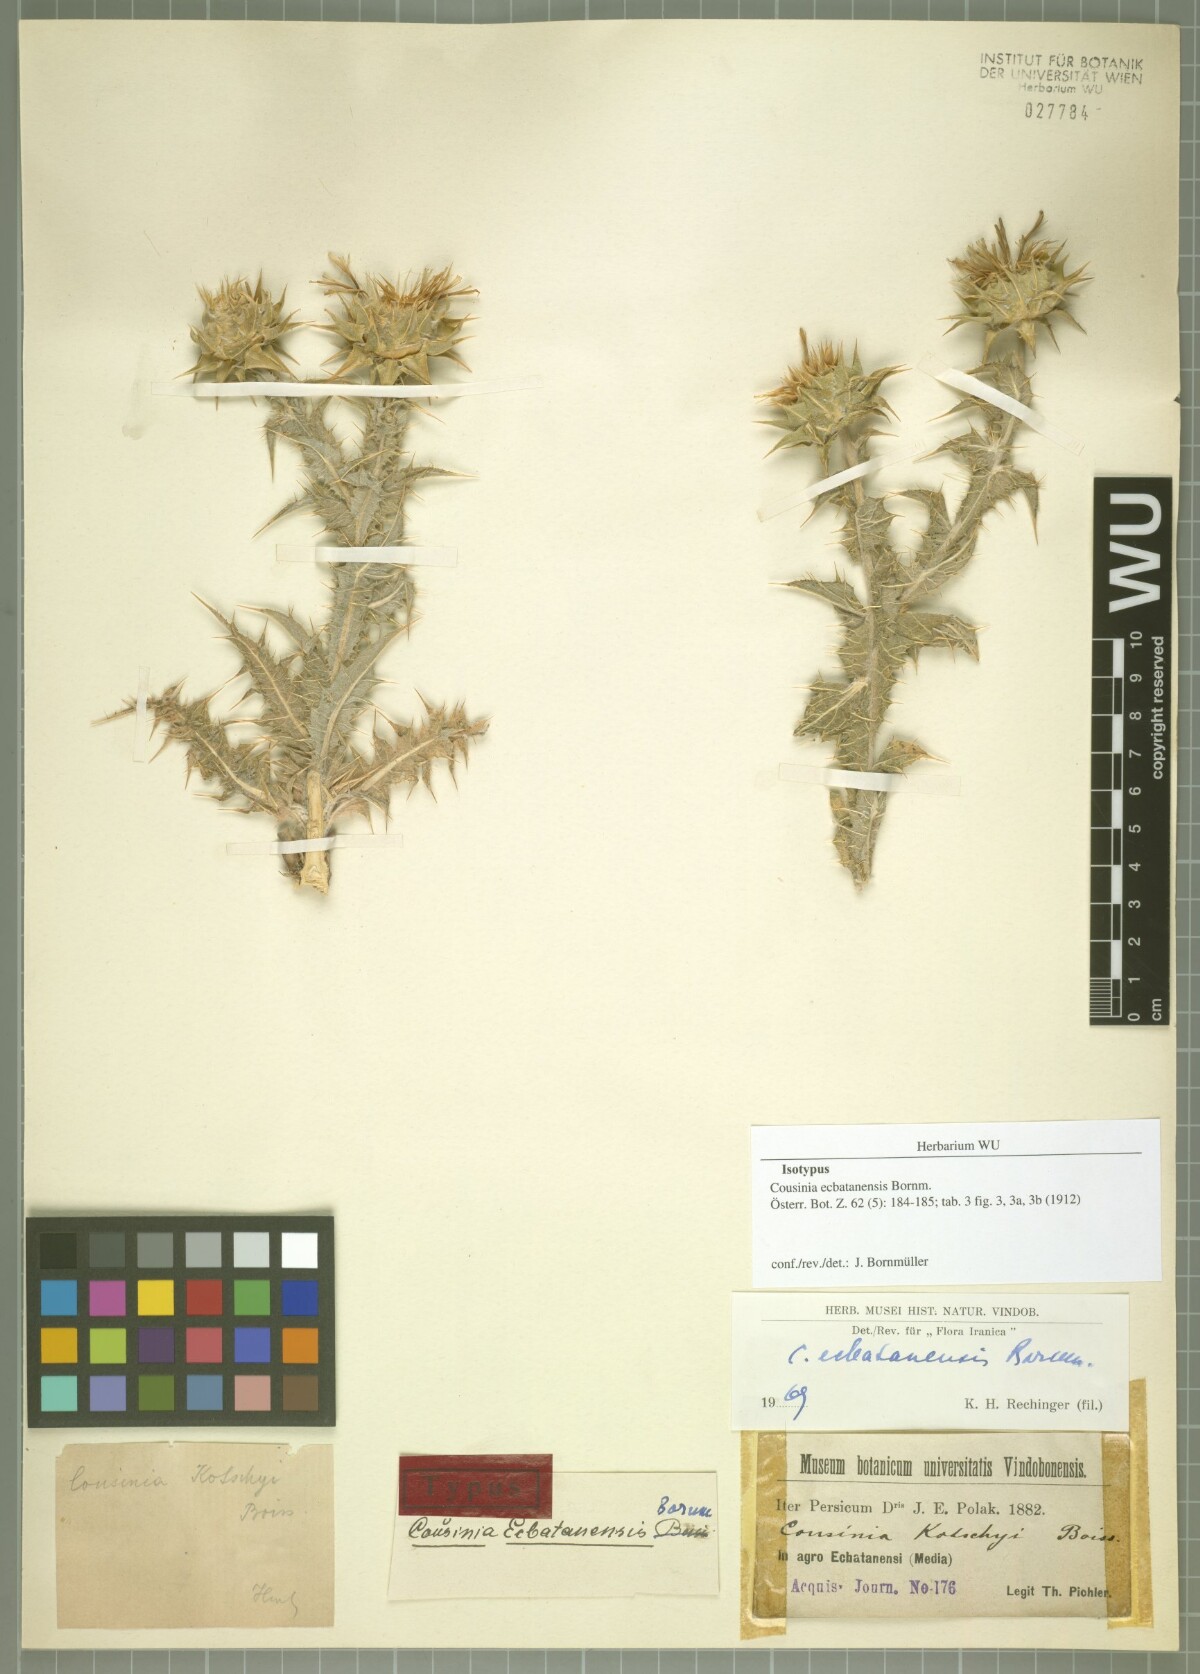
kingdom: Plantae
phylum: Tracheophyta
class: Magnoliopsida
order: Asterales
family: Asteraceae
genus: Cousinia
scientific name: Cousinia ecbatanensis
